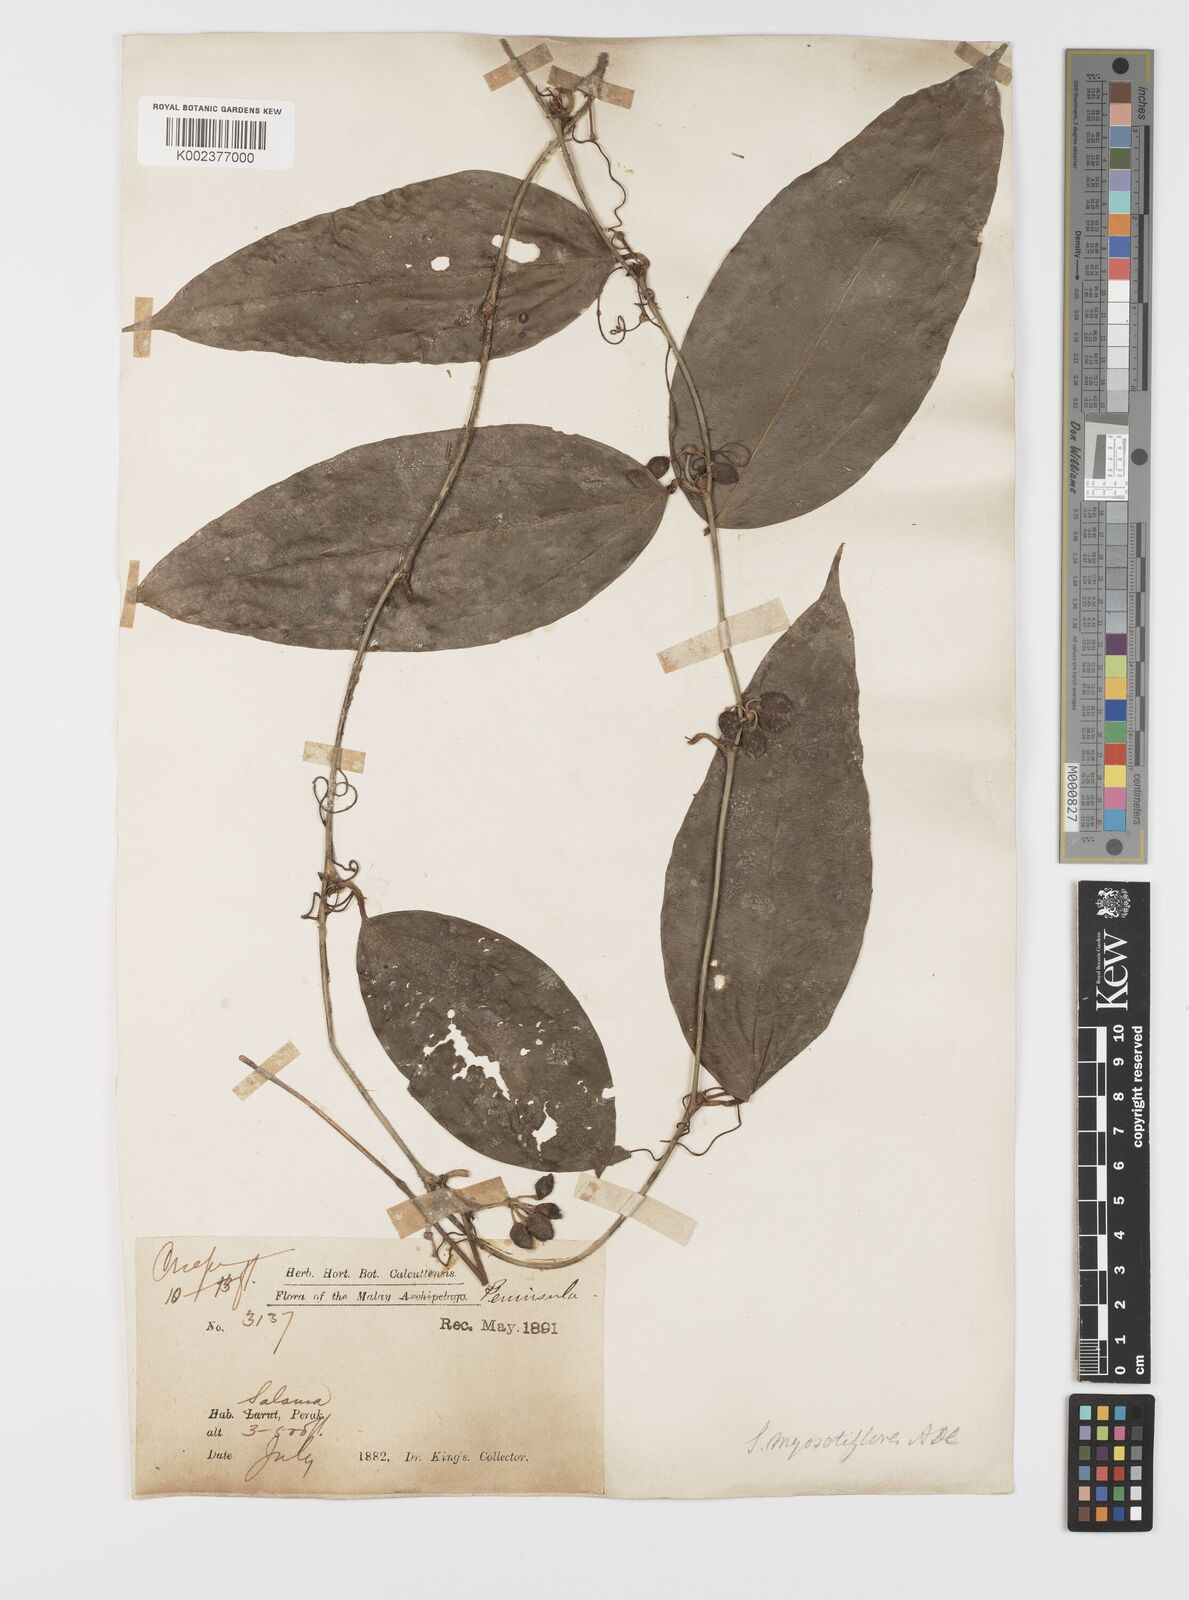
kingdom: Plantae
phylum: Tracheophyta
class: Liliopsida
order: Liliales
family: Smilacaceae
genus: Smilax
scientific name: Smilax myosotiflora
